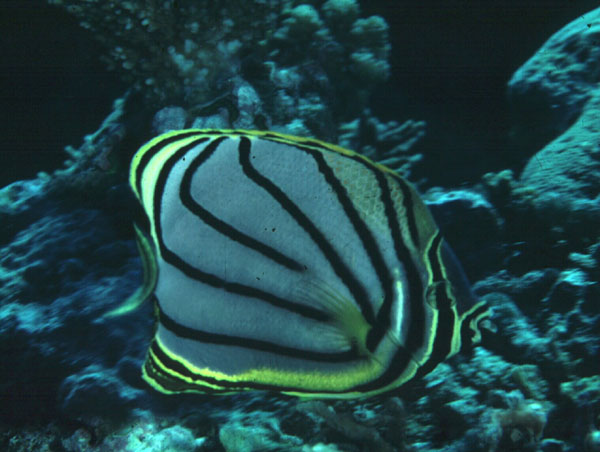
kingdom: Animalia
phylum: Chordata
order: Perciformes
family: Chaetodontidae
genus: Chaetodon
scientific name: Chaetodon meyeri
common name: Meyer's butterflyfish
